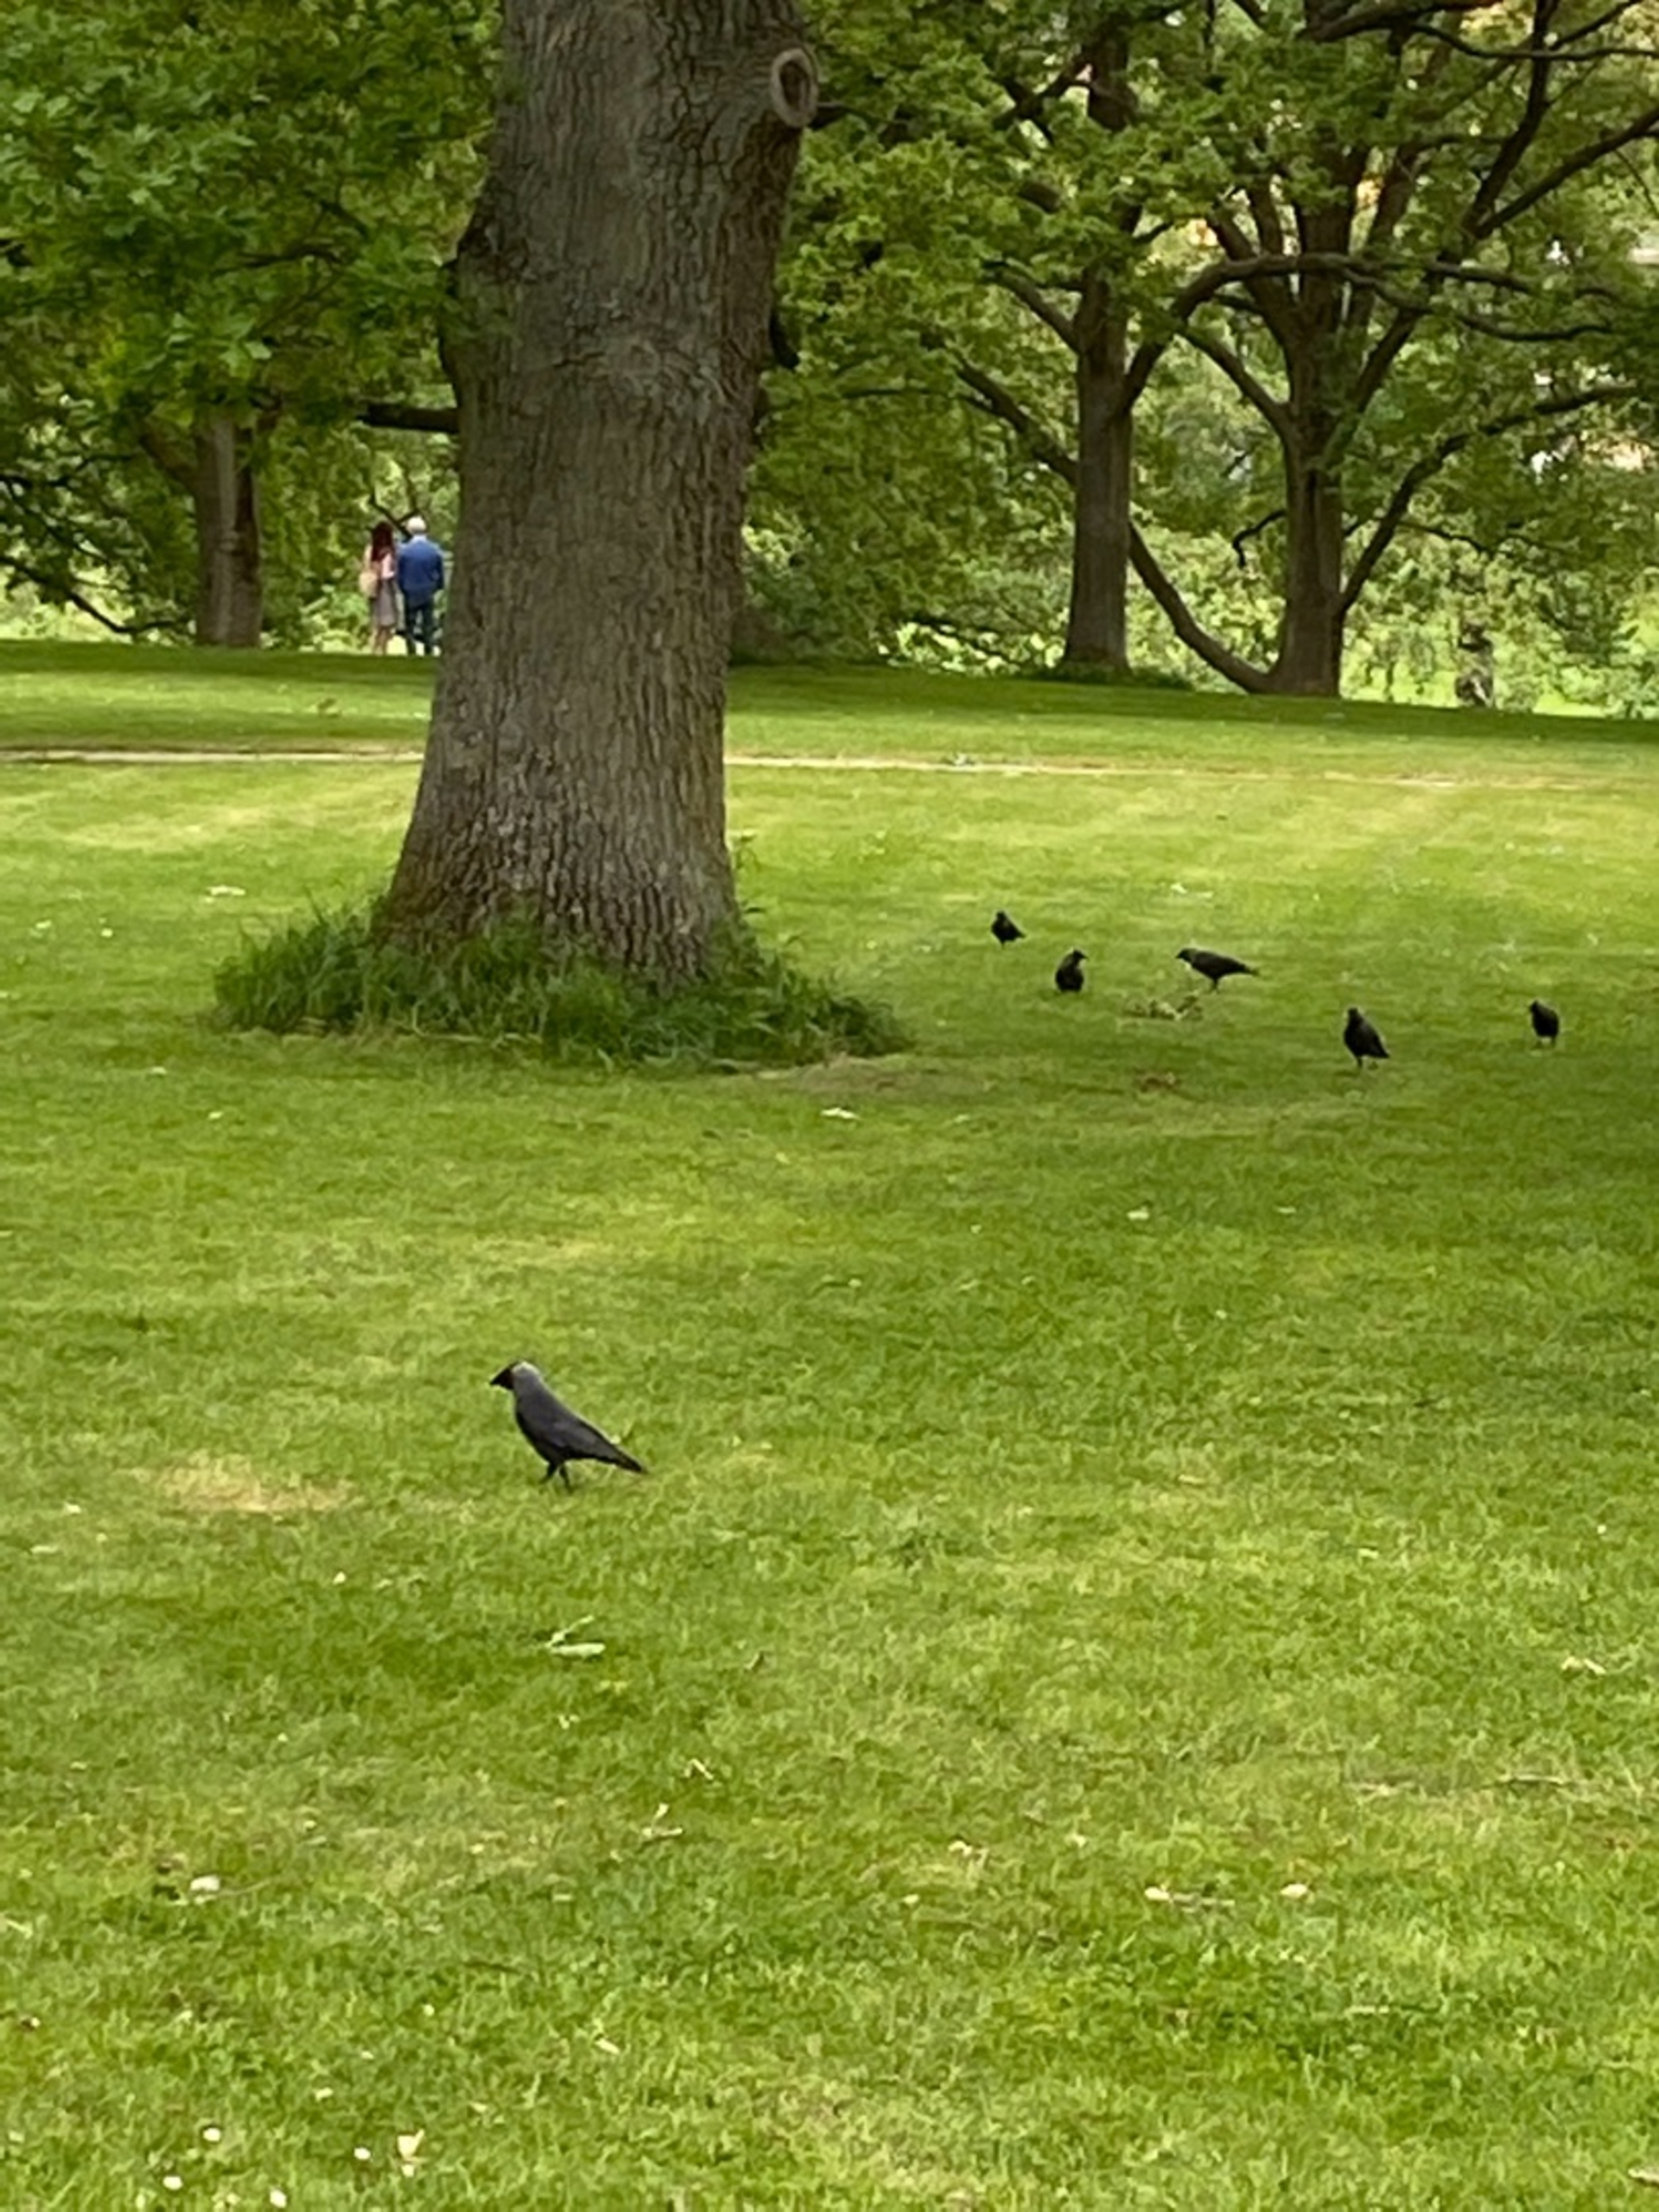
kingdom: Animalia
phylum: Chordata
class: Aves
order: Passeriformes
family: Corvidae
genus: Coloeus
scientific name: Coloeus monedula
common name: Allike
